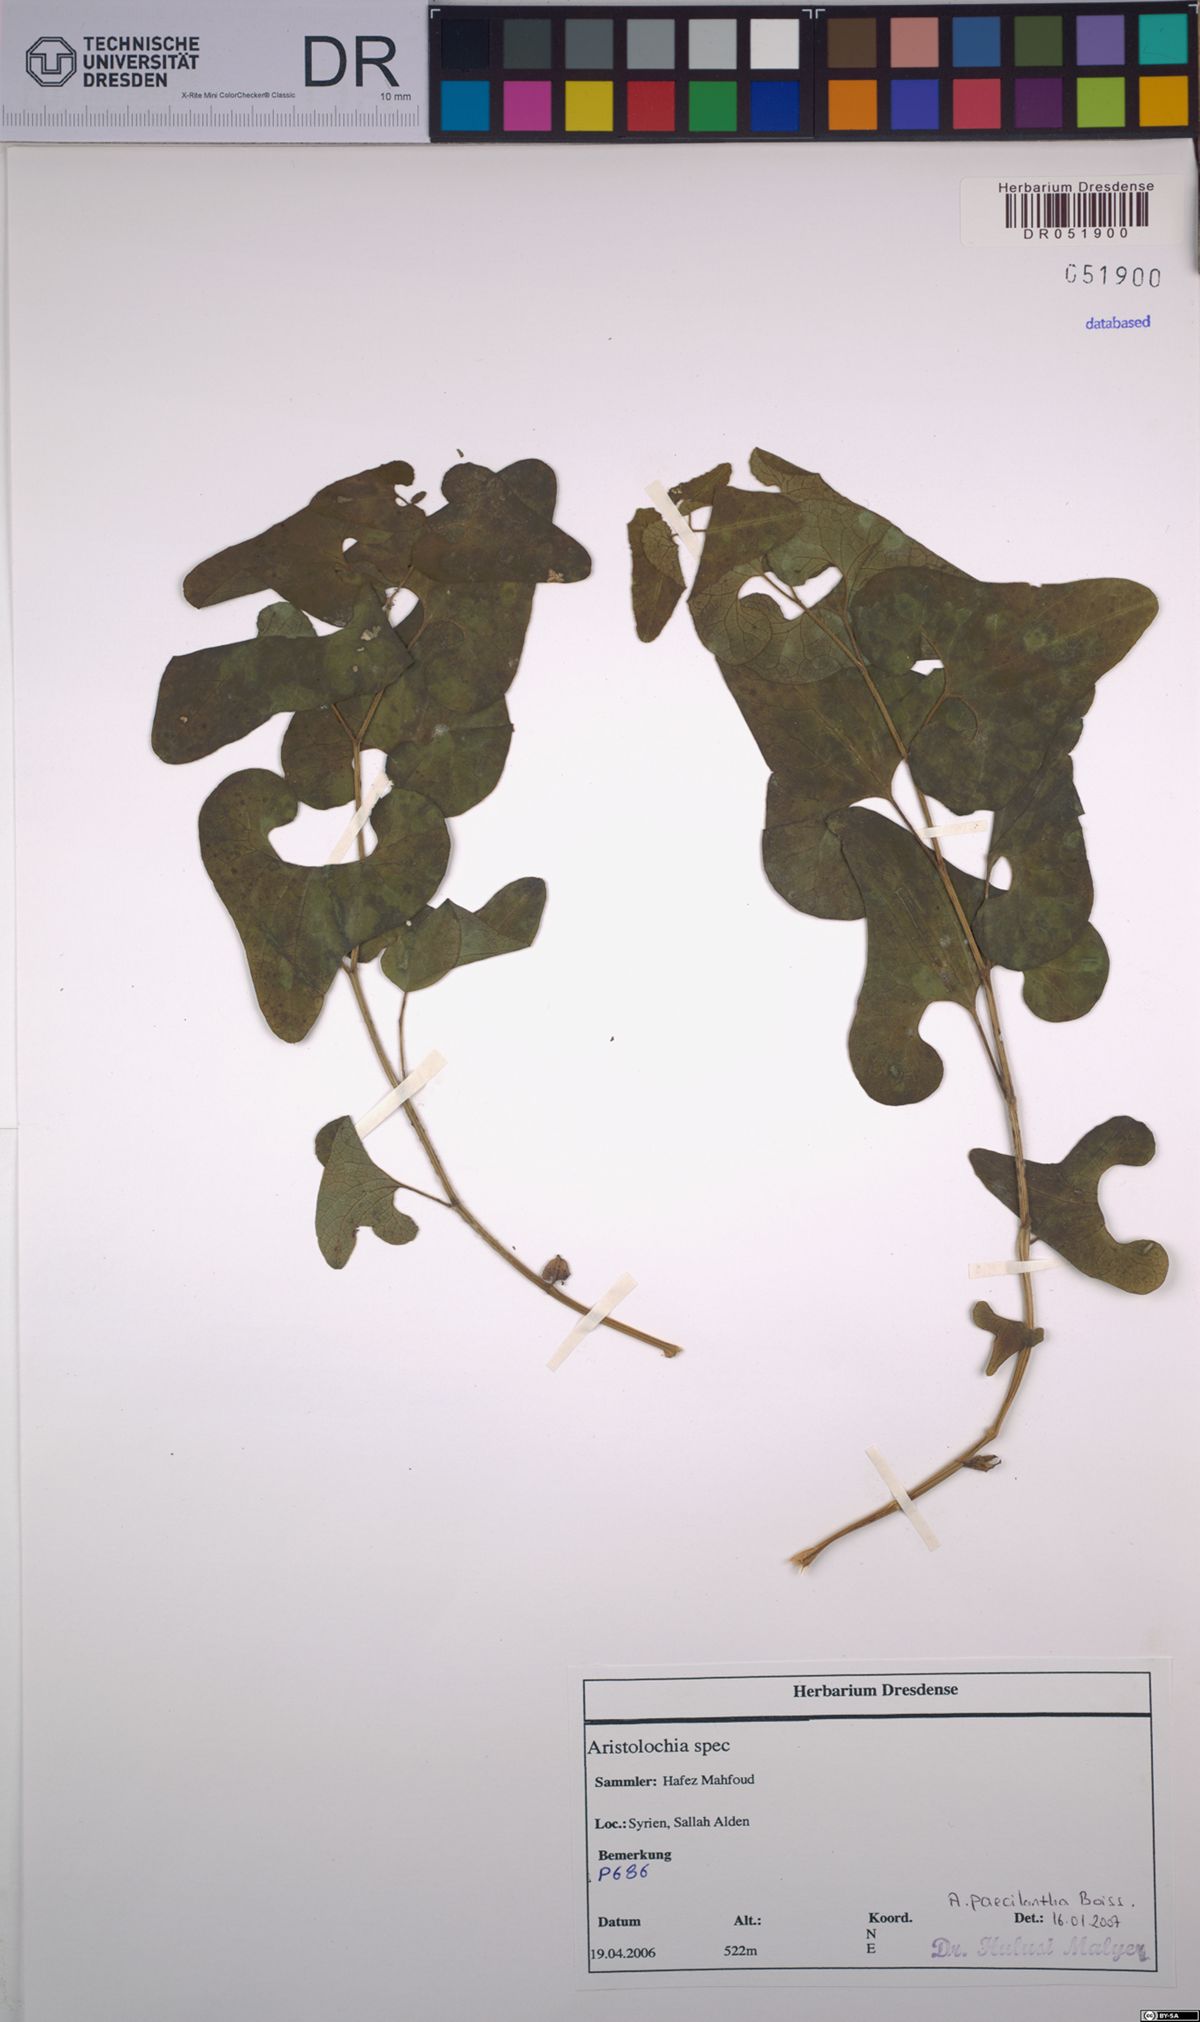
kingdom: Plantae
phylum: Tracheophyta
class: Magnoliopsida
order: Piperales
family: Aristolochiaceae
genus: Aristolochia
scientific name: Aristolochia paecilantha
